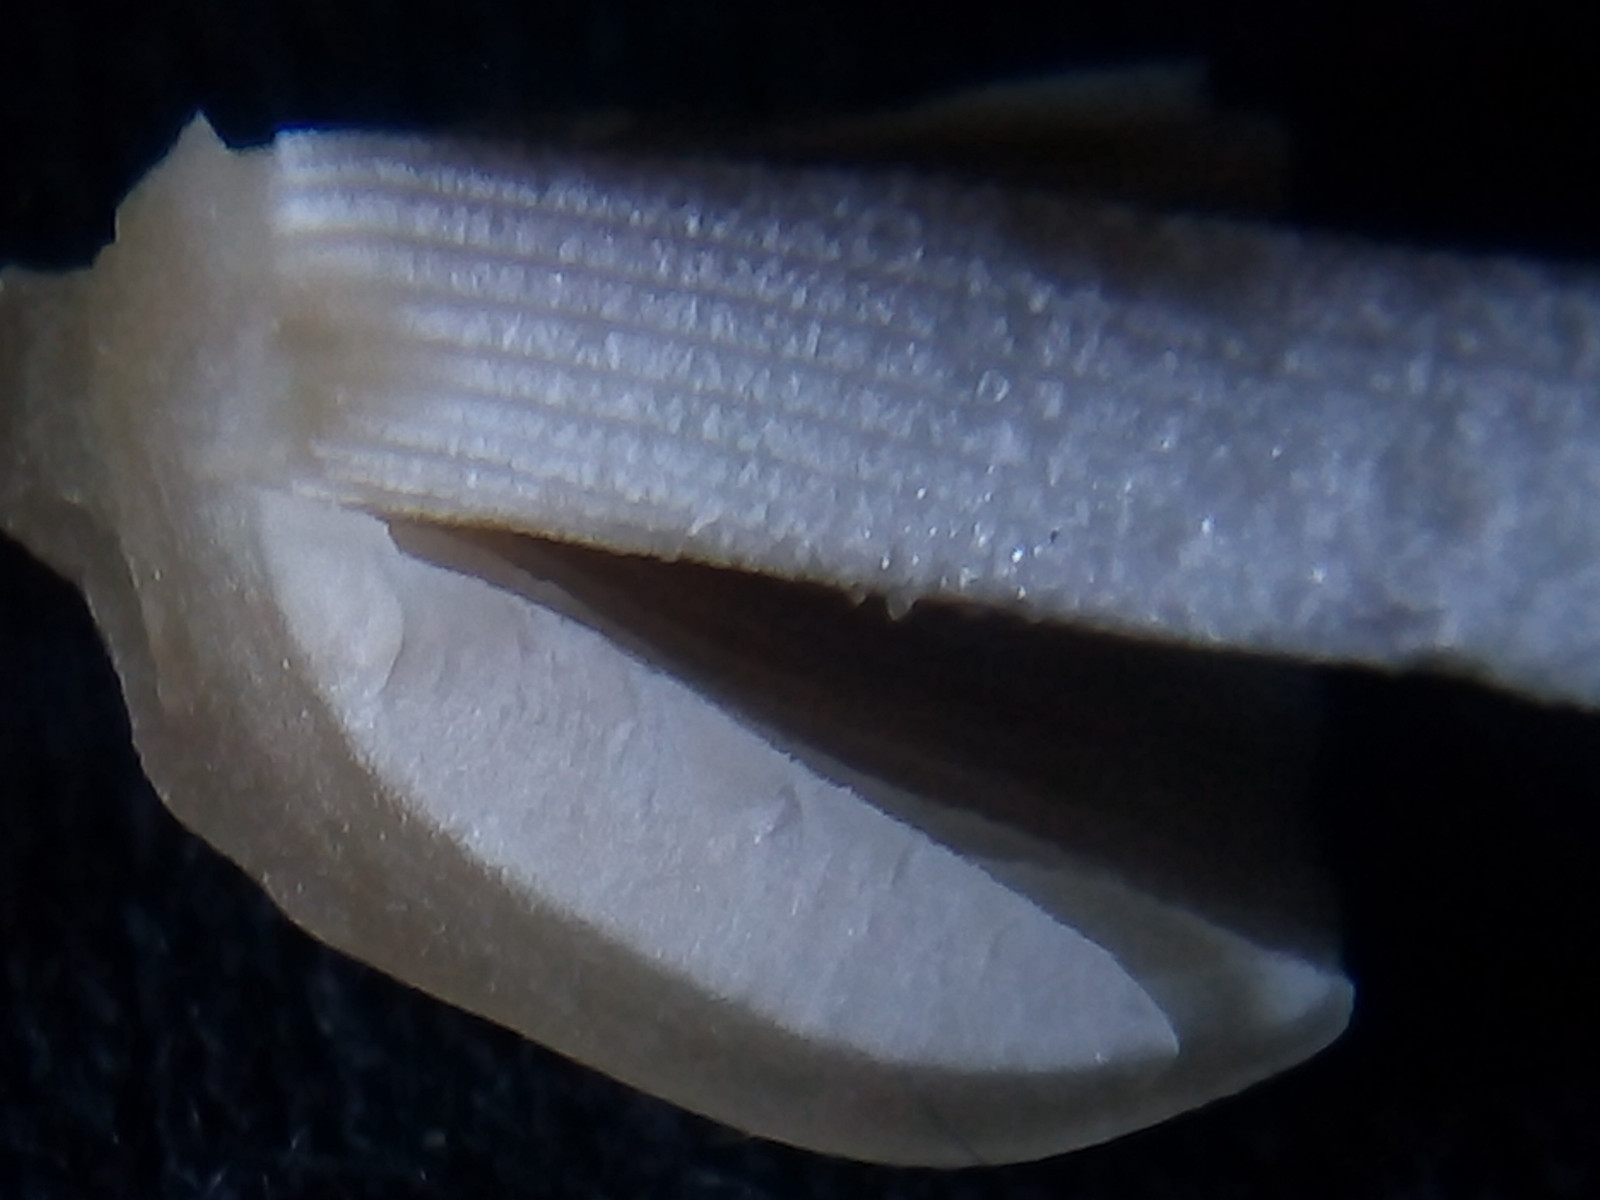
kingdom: Fungi
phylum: Basidiomycota
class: Agaricomycetes
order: Agaricales
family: Bolbitiaceae
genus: Pholiotina
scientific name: Pholiotina
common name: dansehat
